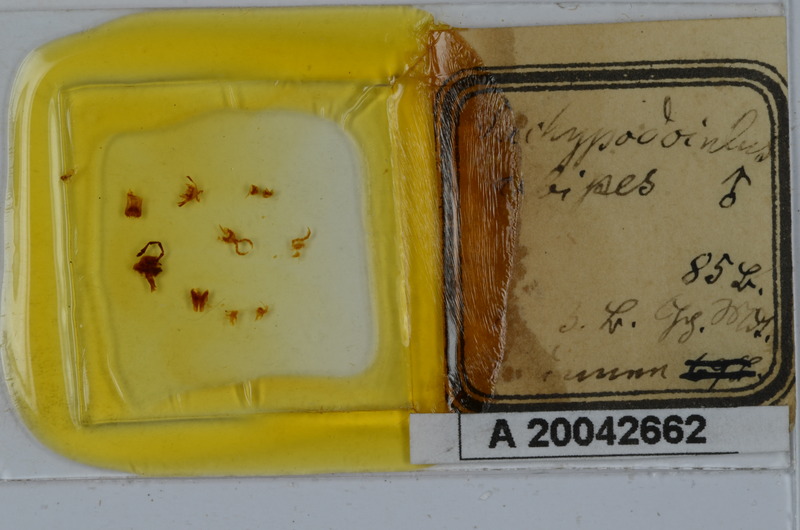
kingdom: Animalia
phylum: Arthropoda
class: Diplopoda
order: Julida
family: Julidae
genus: Tachypodoiulus
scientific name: Tachypodoiulus niger
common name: White-legged snake millipede
